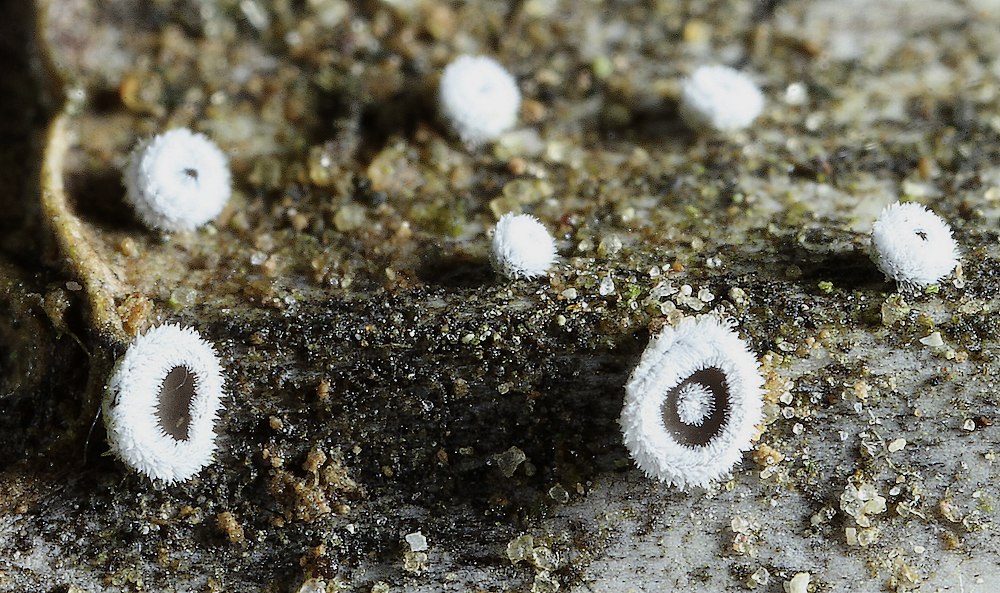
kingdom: Fungi
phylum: Basidiomycota
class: Agaricomycetes
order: Agaricales
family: Niaceae
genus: Lachnella
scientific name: Lachnella alboviolascens
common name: grå frynserede
